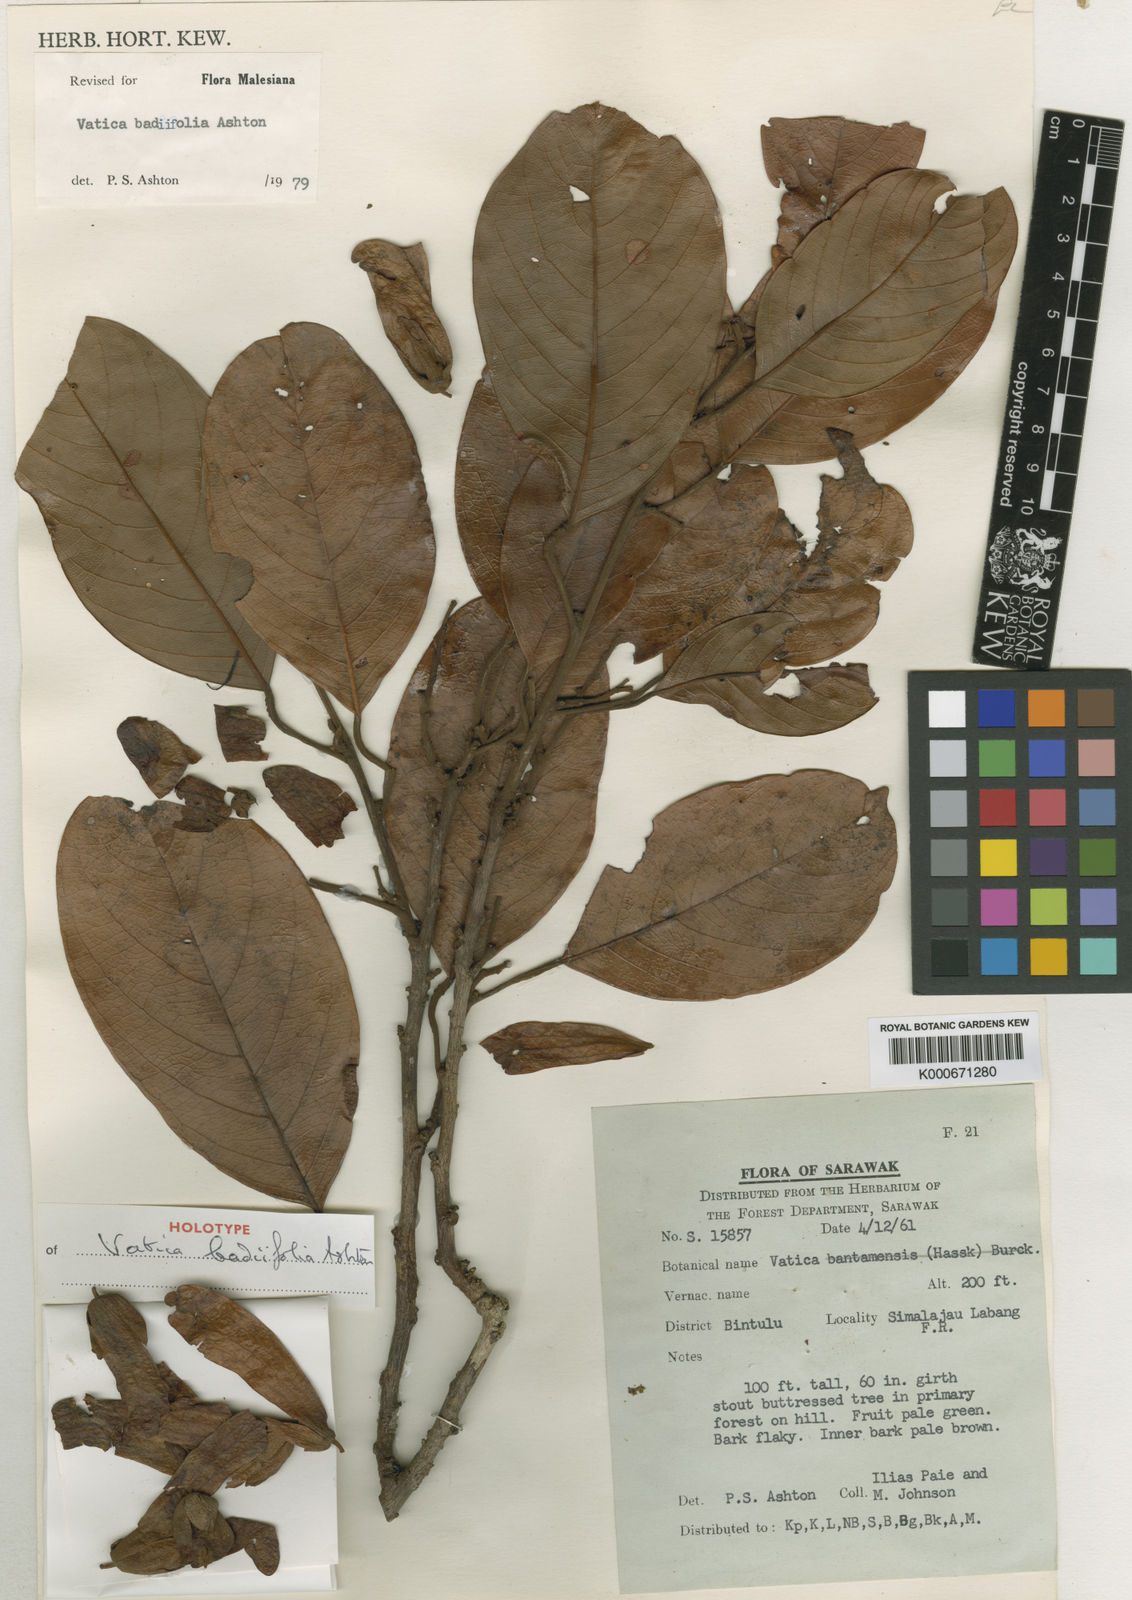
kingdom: Plantae
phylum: Tracheophyta
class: Magnoliopsida
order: Malvales
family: Dipterocarpaceae
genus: Vatica
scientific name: Vatica badiifolia
